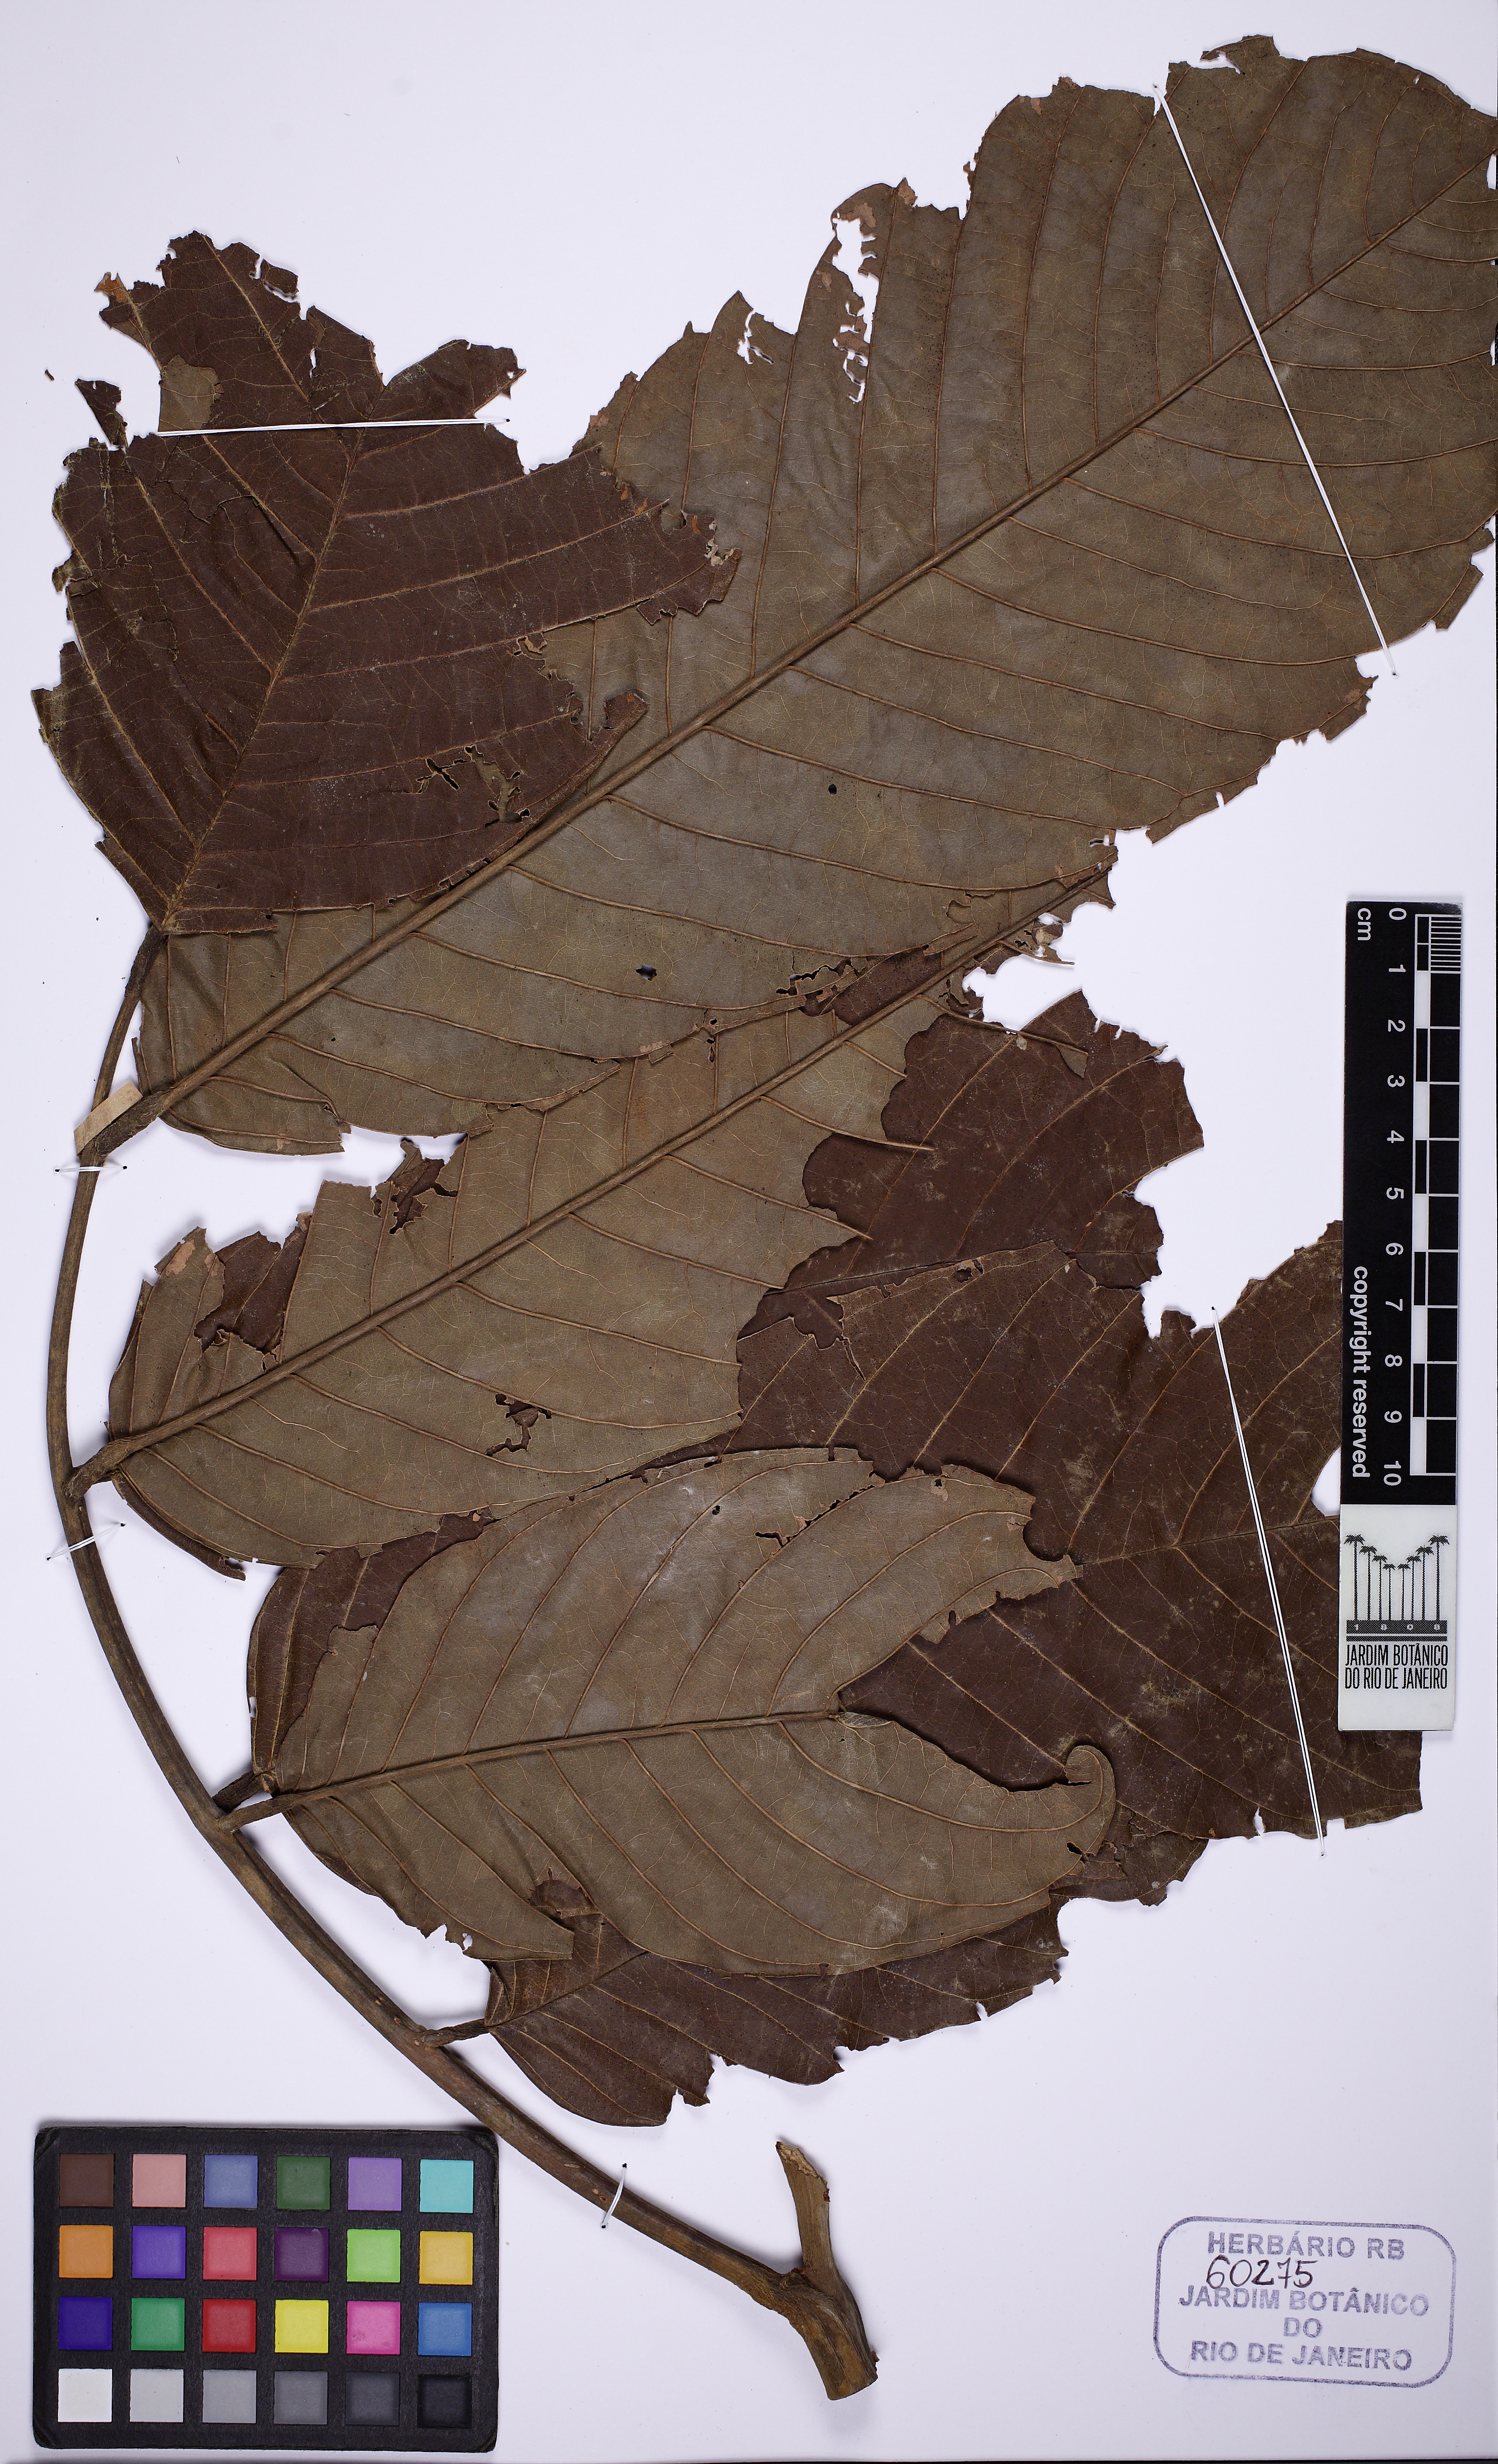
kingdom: Plantae
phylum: Tracheophyta
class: Magnoliopsida
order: Fabales
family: Fabaceae
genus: Ormosia
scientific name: Ormosia santaremnensis
